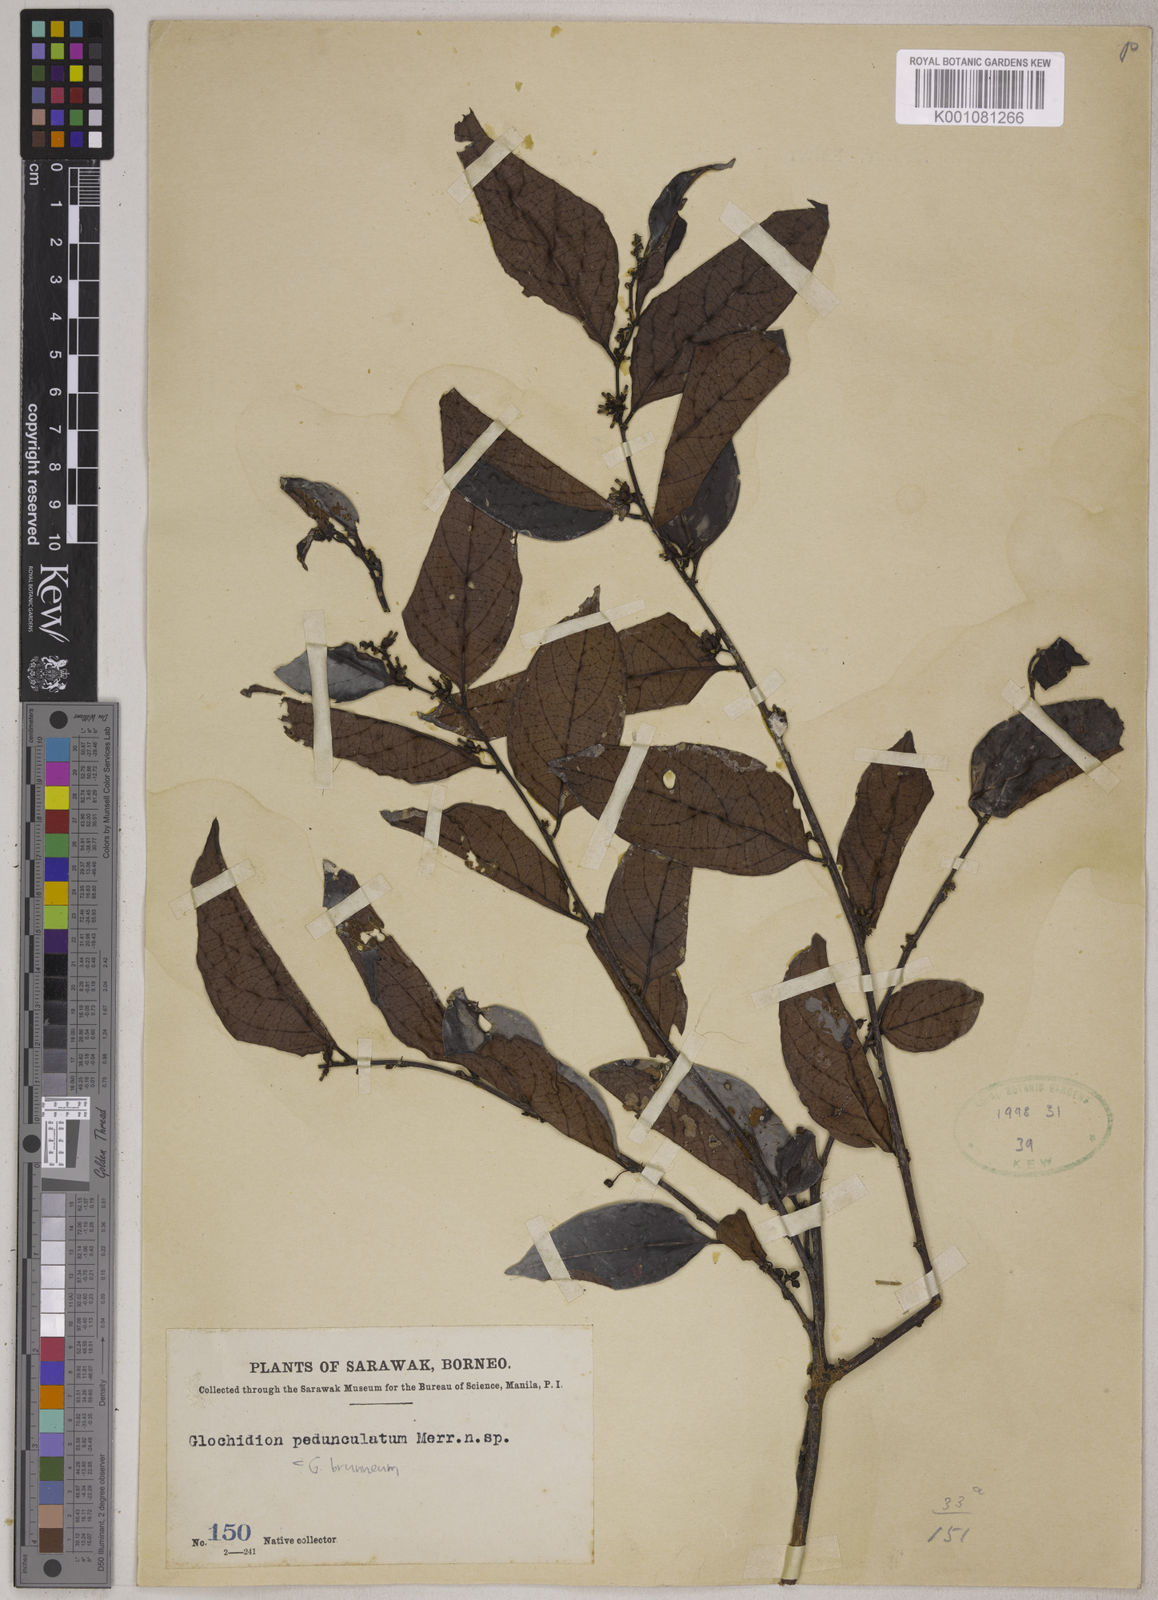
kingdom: Plantae
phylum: Tracheophyta
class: Magnoliopsida
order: Malpighiales
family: Phyllanthaceae
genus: Glochidion
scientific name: Glochidion zeylanicum
